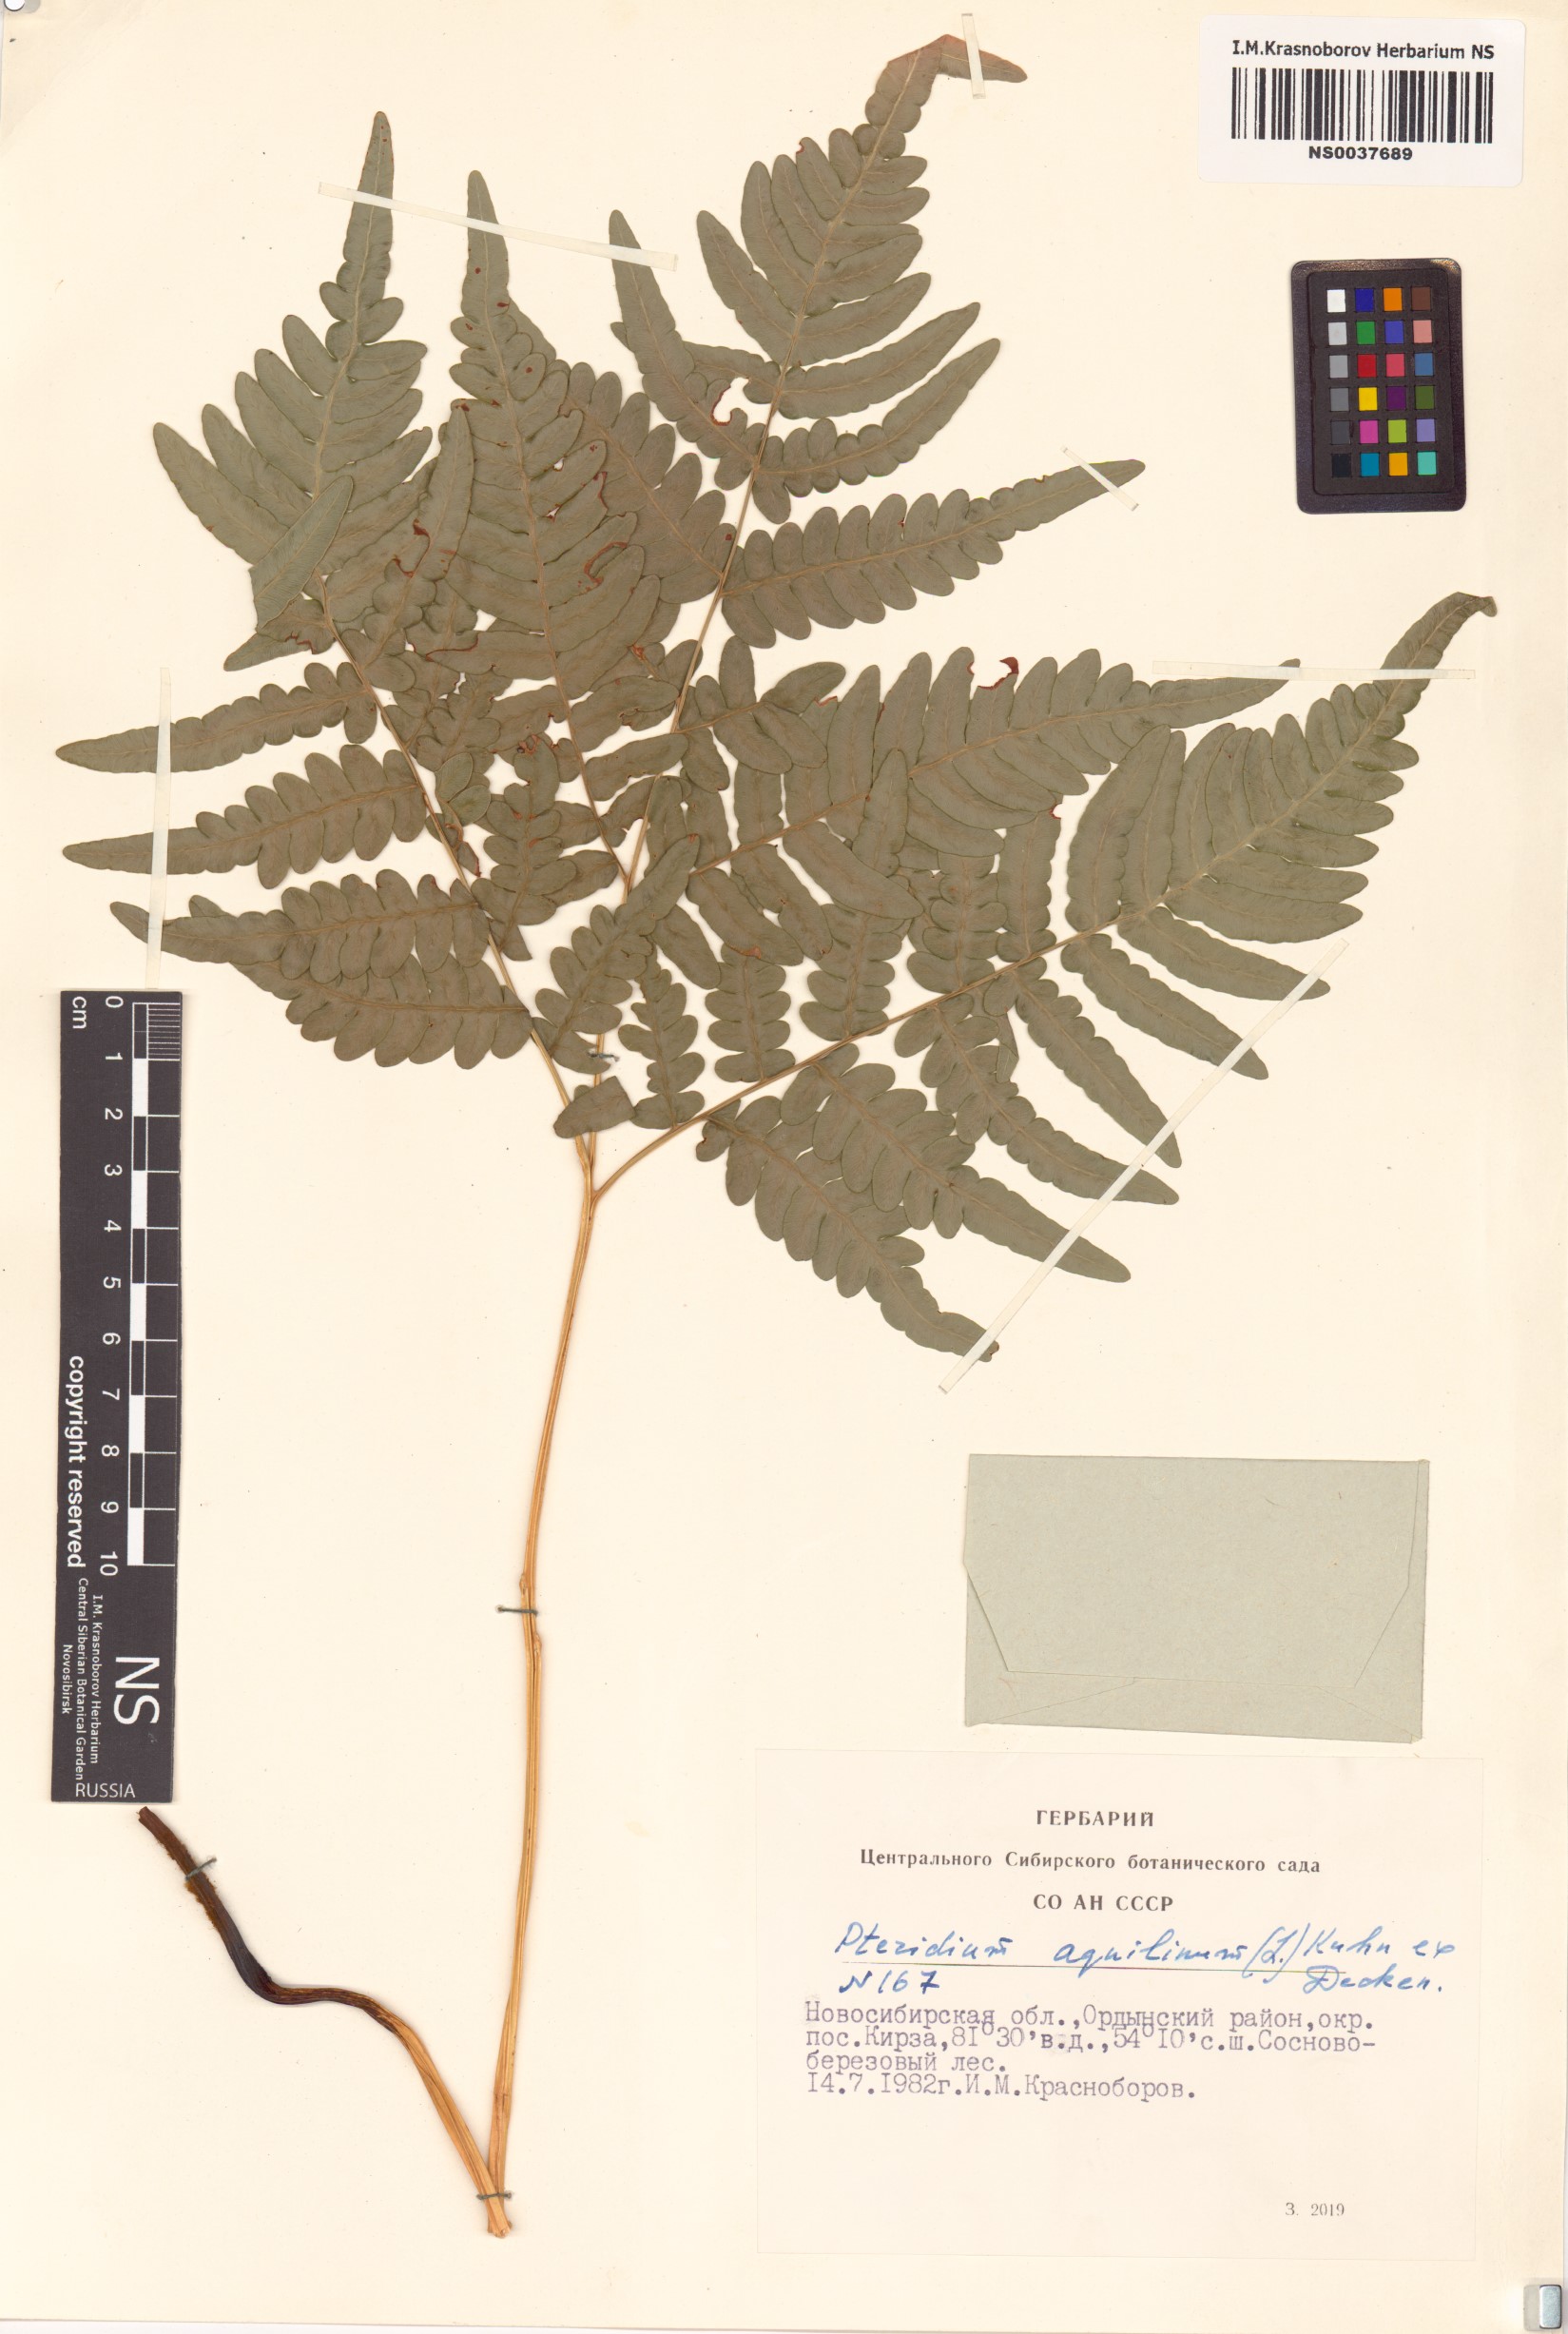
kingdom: Plantae
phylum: Tracheophyta
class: Polypodiopsida
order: Polypodiales
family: Dennstaedtiaceae
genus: Pteridium
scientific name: Pteridium aquilinum
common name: Bracken
